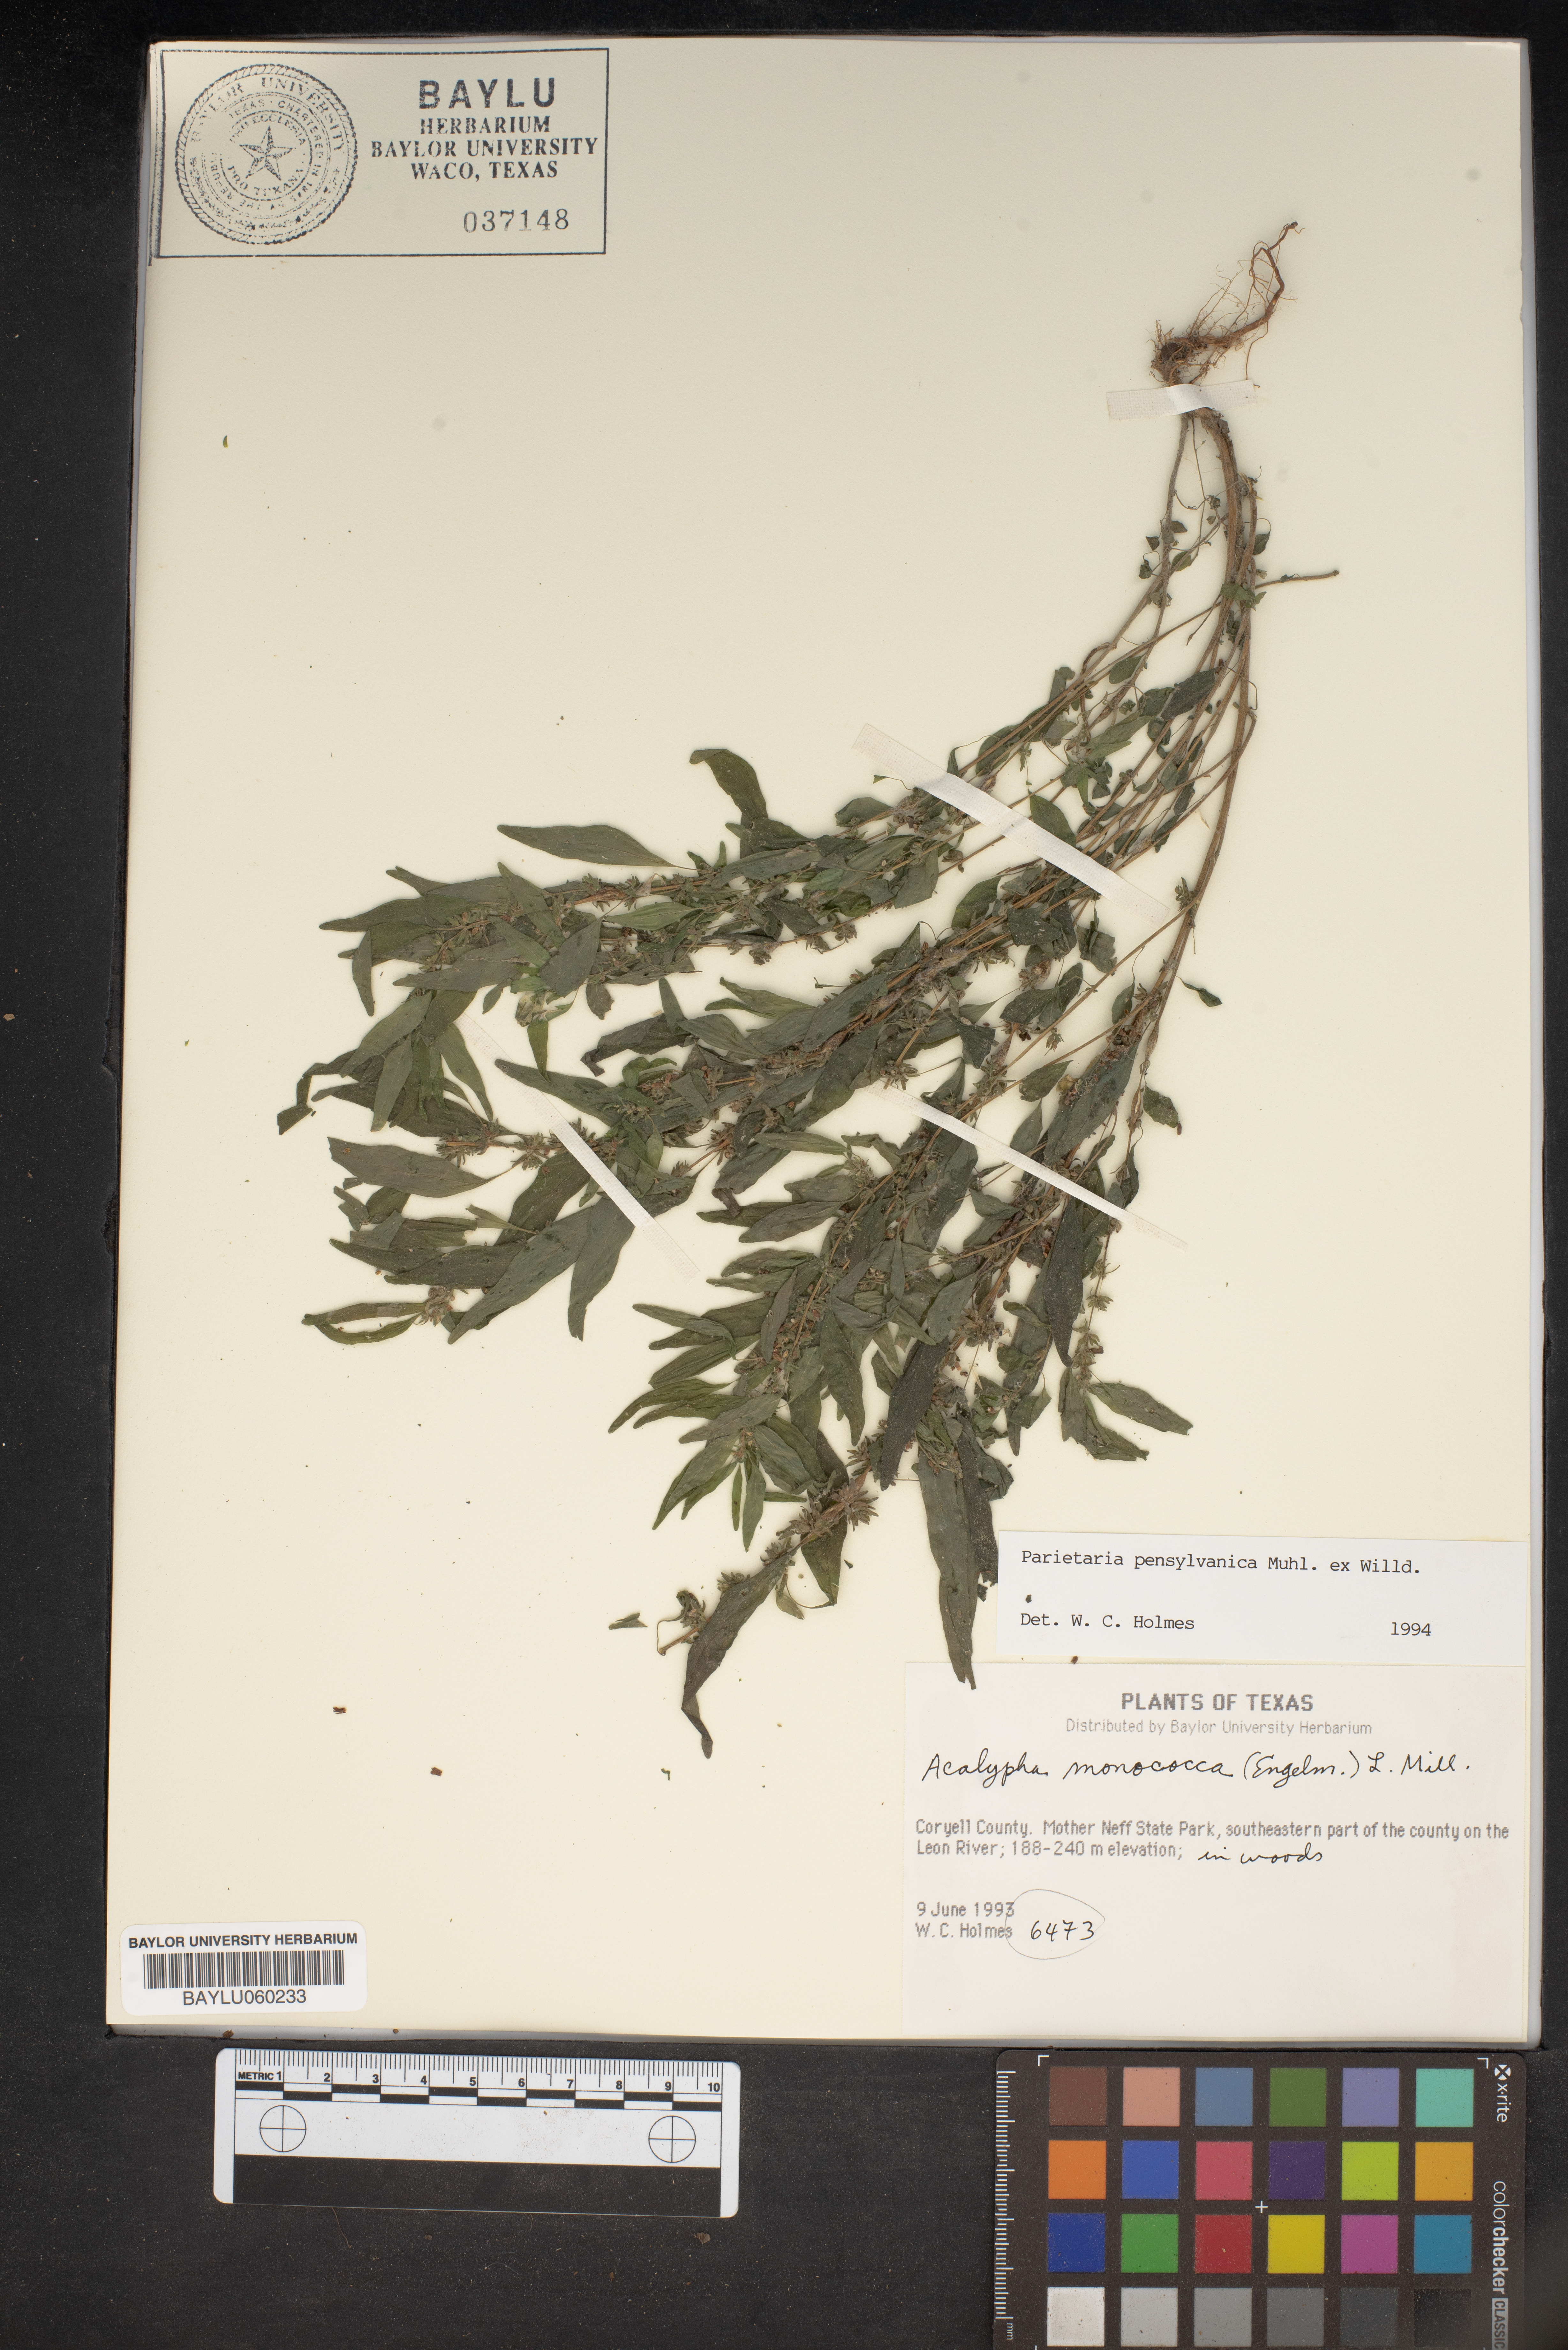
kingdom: Plantae
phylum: Tracheophyta
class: Magnoliopsida
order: Malpighiales
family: Euphorbiaceae
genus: Acalypha
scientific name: Acalypha monococca
